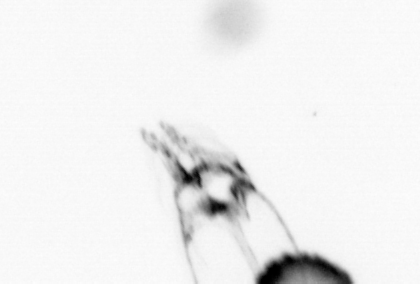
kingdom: Animalia
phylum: Arthropoda
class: Copepoda
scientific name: Copepoda
